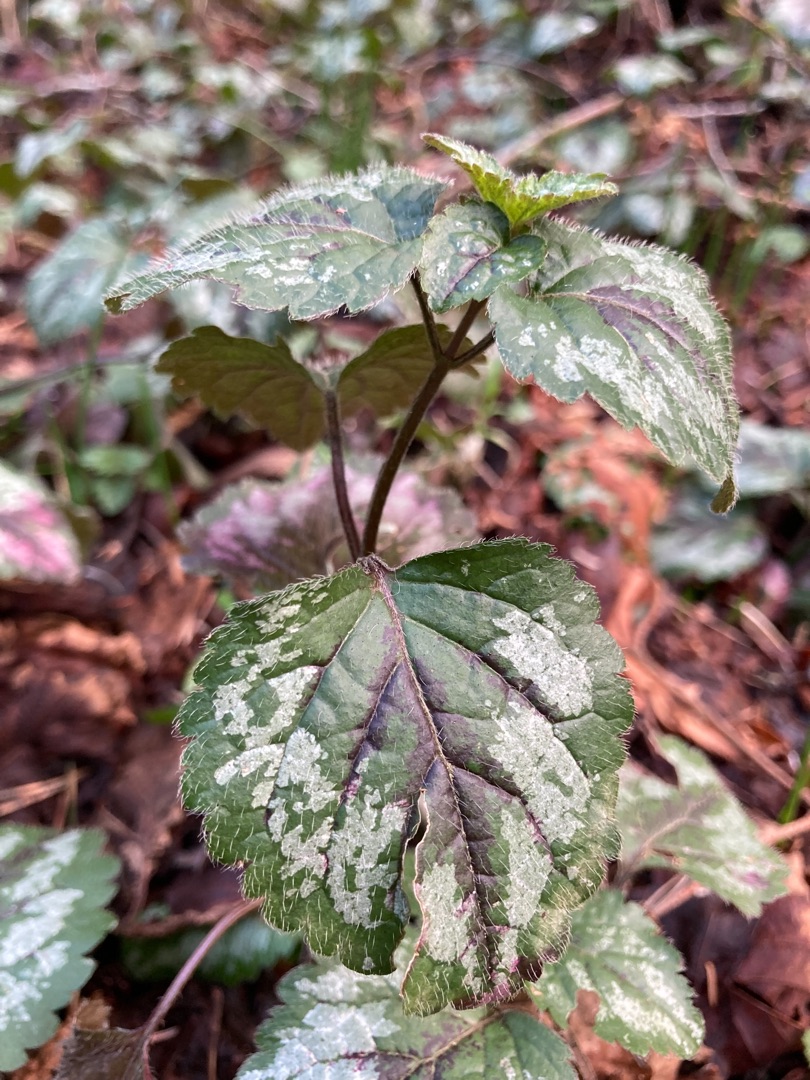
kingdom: Plantae
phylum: Tracheophyta
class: Magnoliopsida
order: Lamiales
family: Lamiaceae
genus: Lamium
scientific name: Lamium galeobdolon
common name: Have-guldnælde
